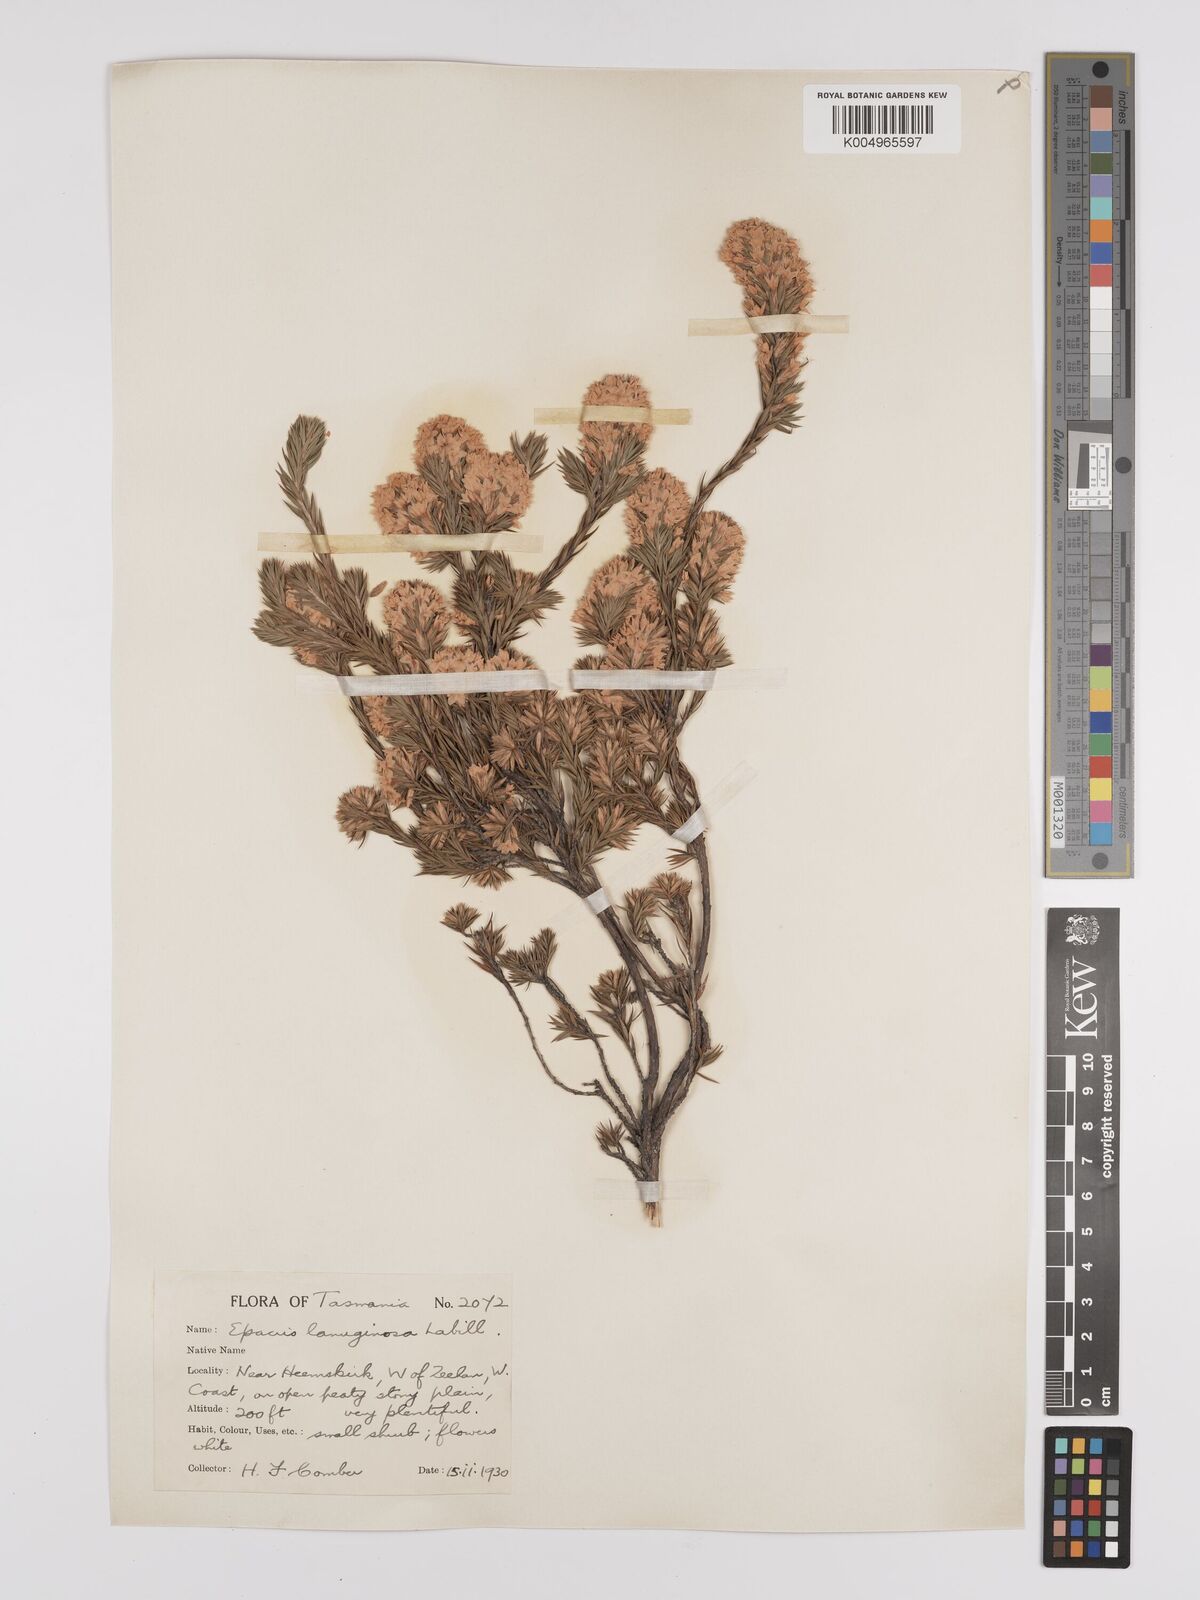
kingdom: Plantae
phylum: Tracheophyta
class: Magnoliopsida
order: Ericales
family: Ericaceae
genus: Epacris
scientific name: Epacris lanuginosa
